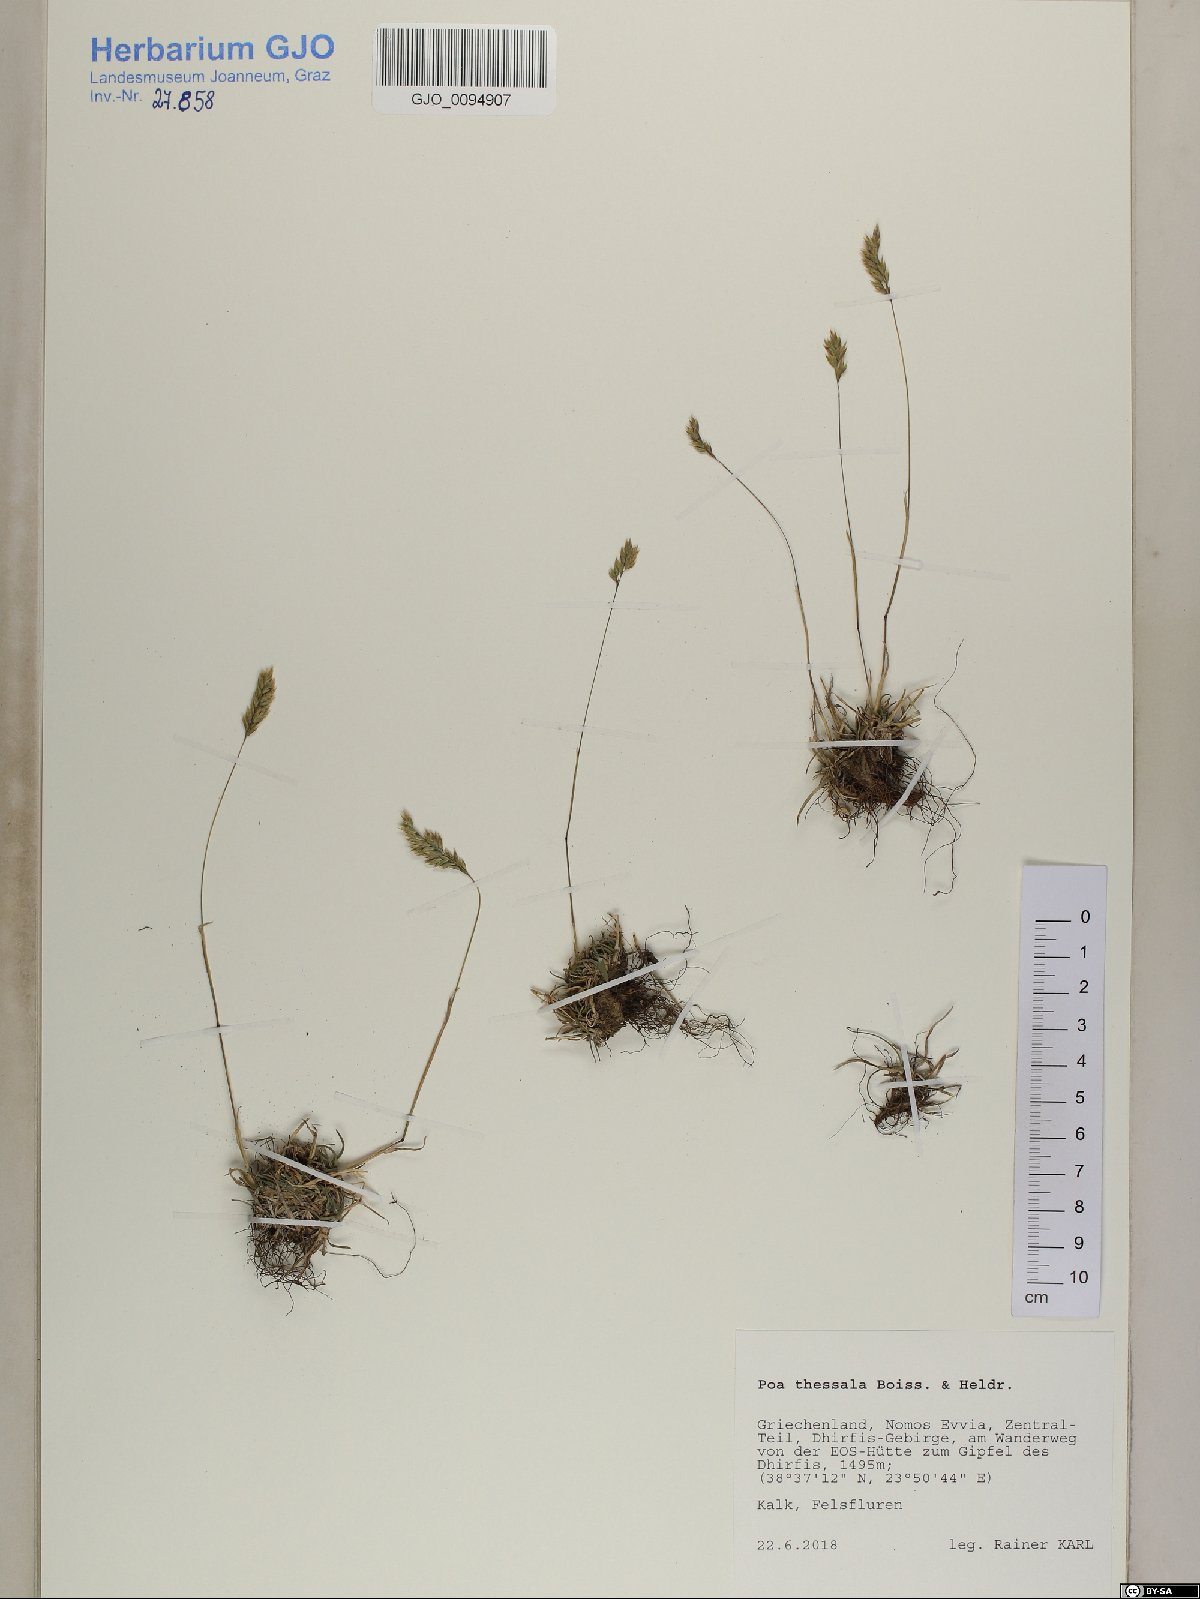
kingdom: Plantae
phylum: Tracheophyta
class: Liliopsida
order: Poales
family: Poaceae
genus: Poa
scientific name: Poa thessala
